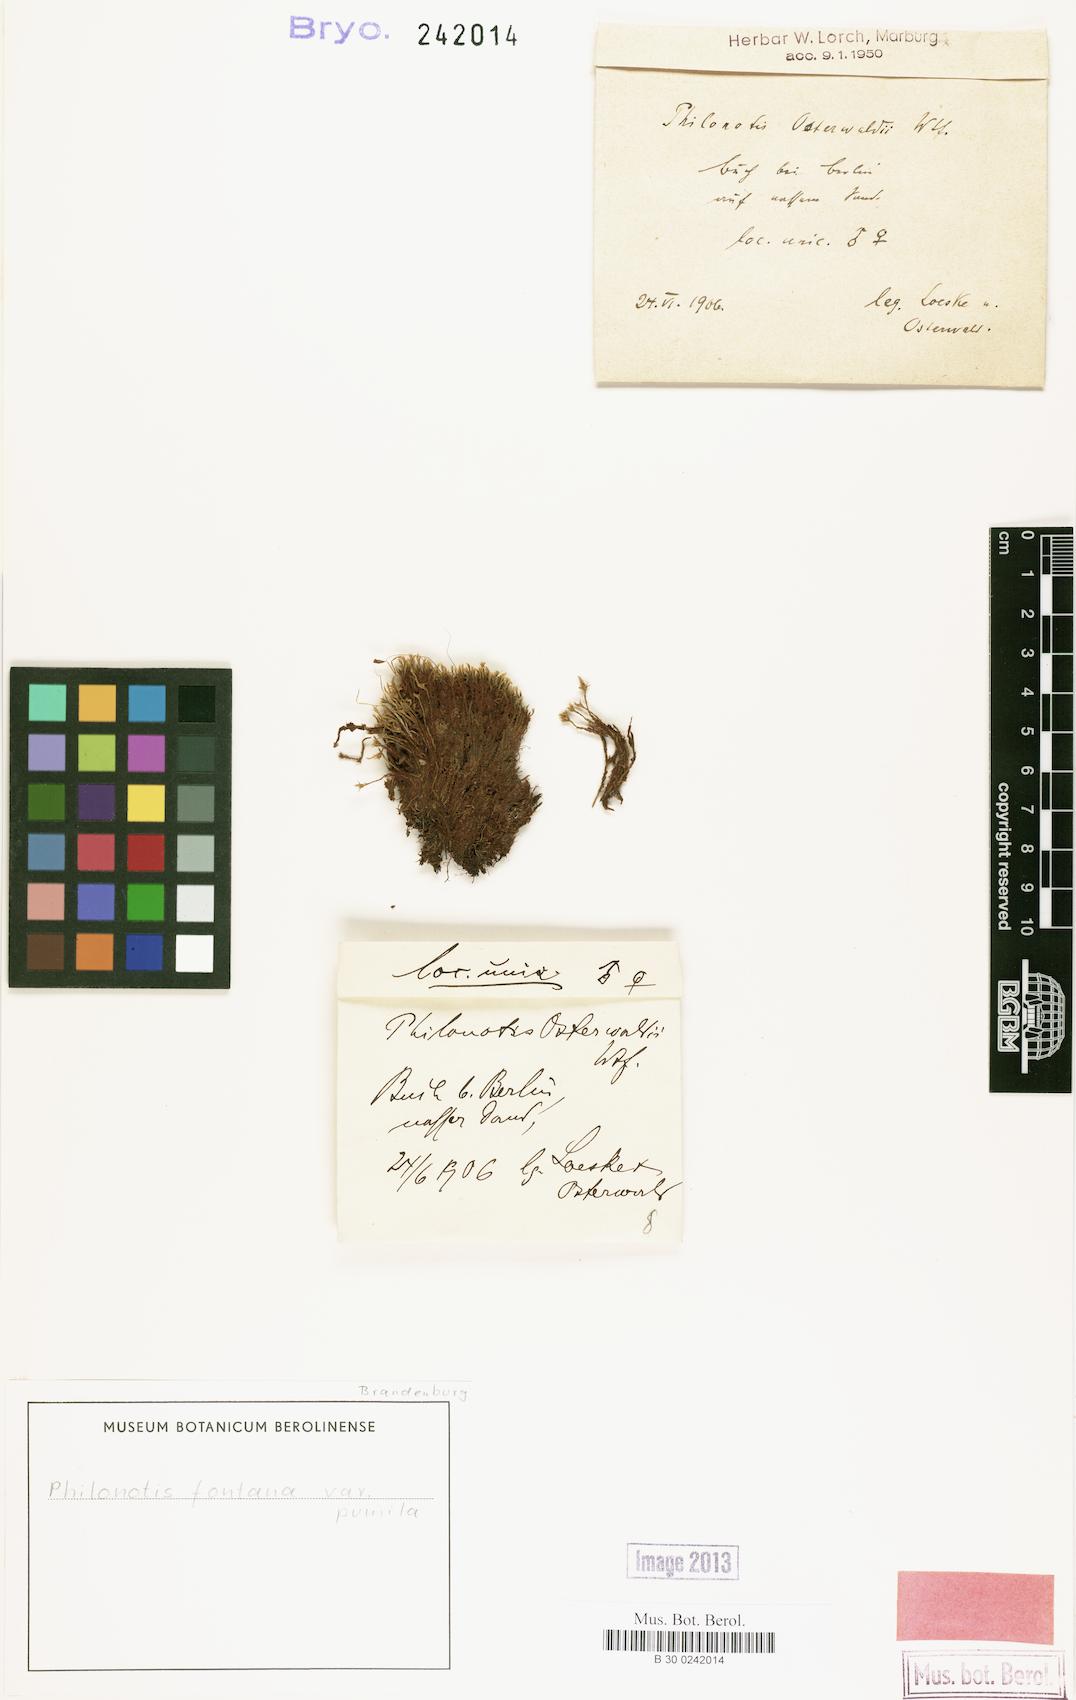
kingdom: Plantae
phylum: Bryophyta
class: Bryopsida
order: Bartramiales
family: Bartramiaceae
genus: Philonotis
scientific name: Philonotis tomentella
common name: Woolly apple moss
